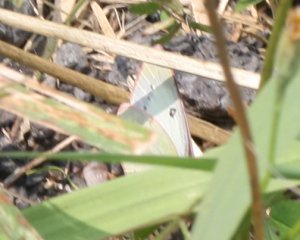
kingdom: Animalia
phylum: Arthropoda
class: Insecta
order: Lepidoptera
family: Pieridae
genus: Colias
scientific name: Colias philodice
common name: Clouded Sulphur
